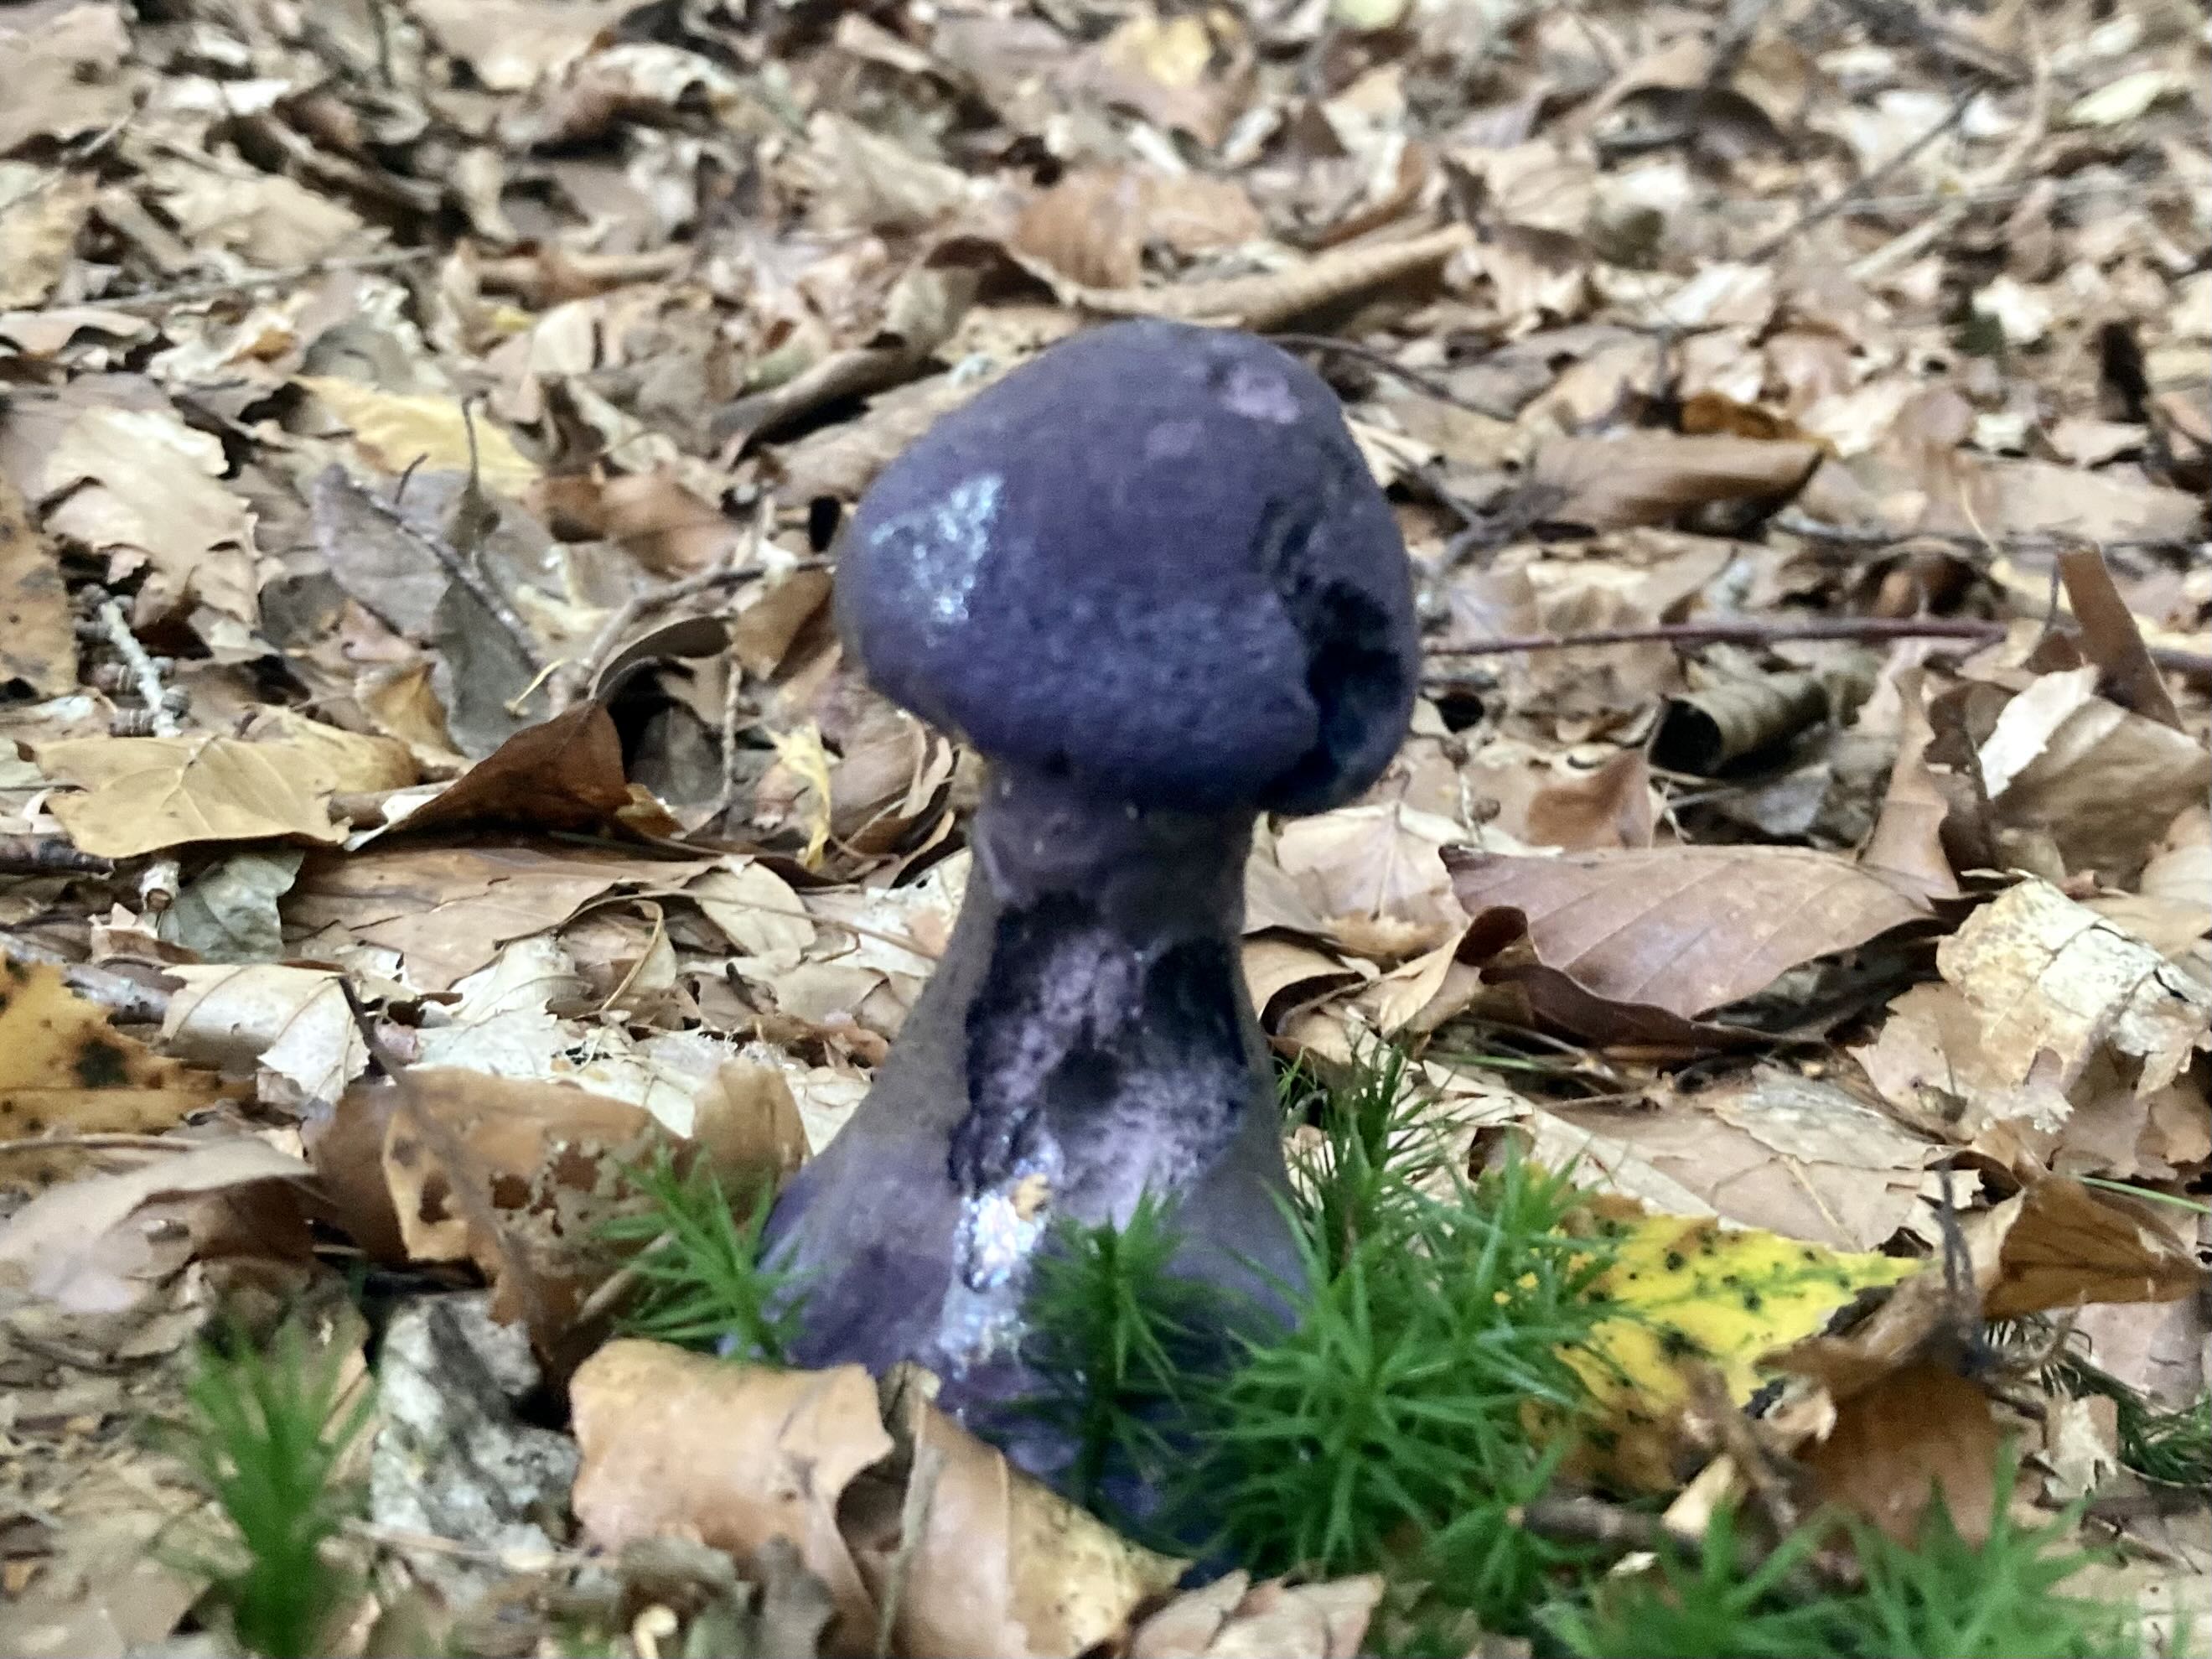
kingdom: Fungi
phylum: Basidiomycota
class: Agaricomycetes
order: Agaricales
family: Cortinariaceae
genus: Cortinarius
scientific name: Cortinarius violaceus
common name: mørkviolet slørhat
